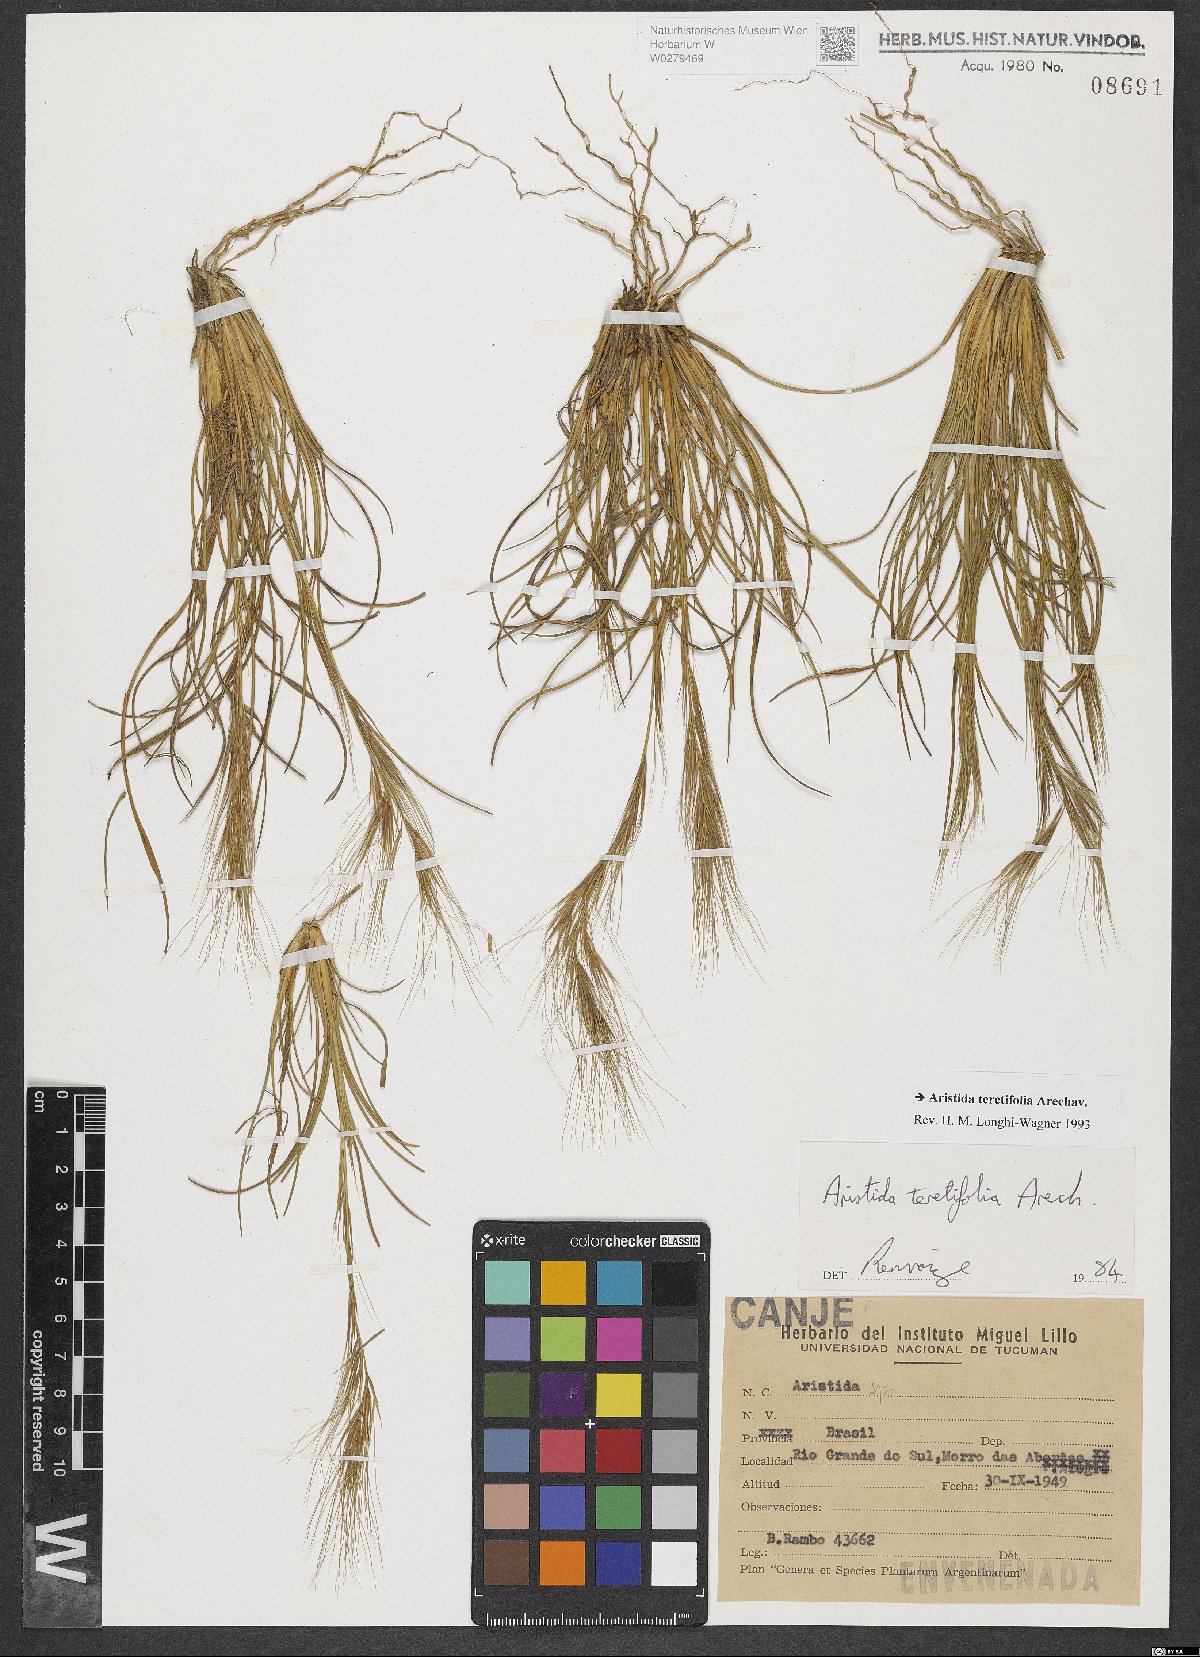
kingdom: Plantae
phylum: Tracheophyta
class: Liliopsida
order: Poales
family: Poaceae
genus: Aristida
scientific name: Aristida teretifolia
